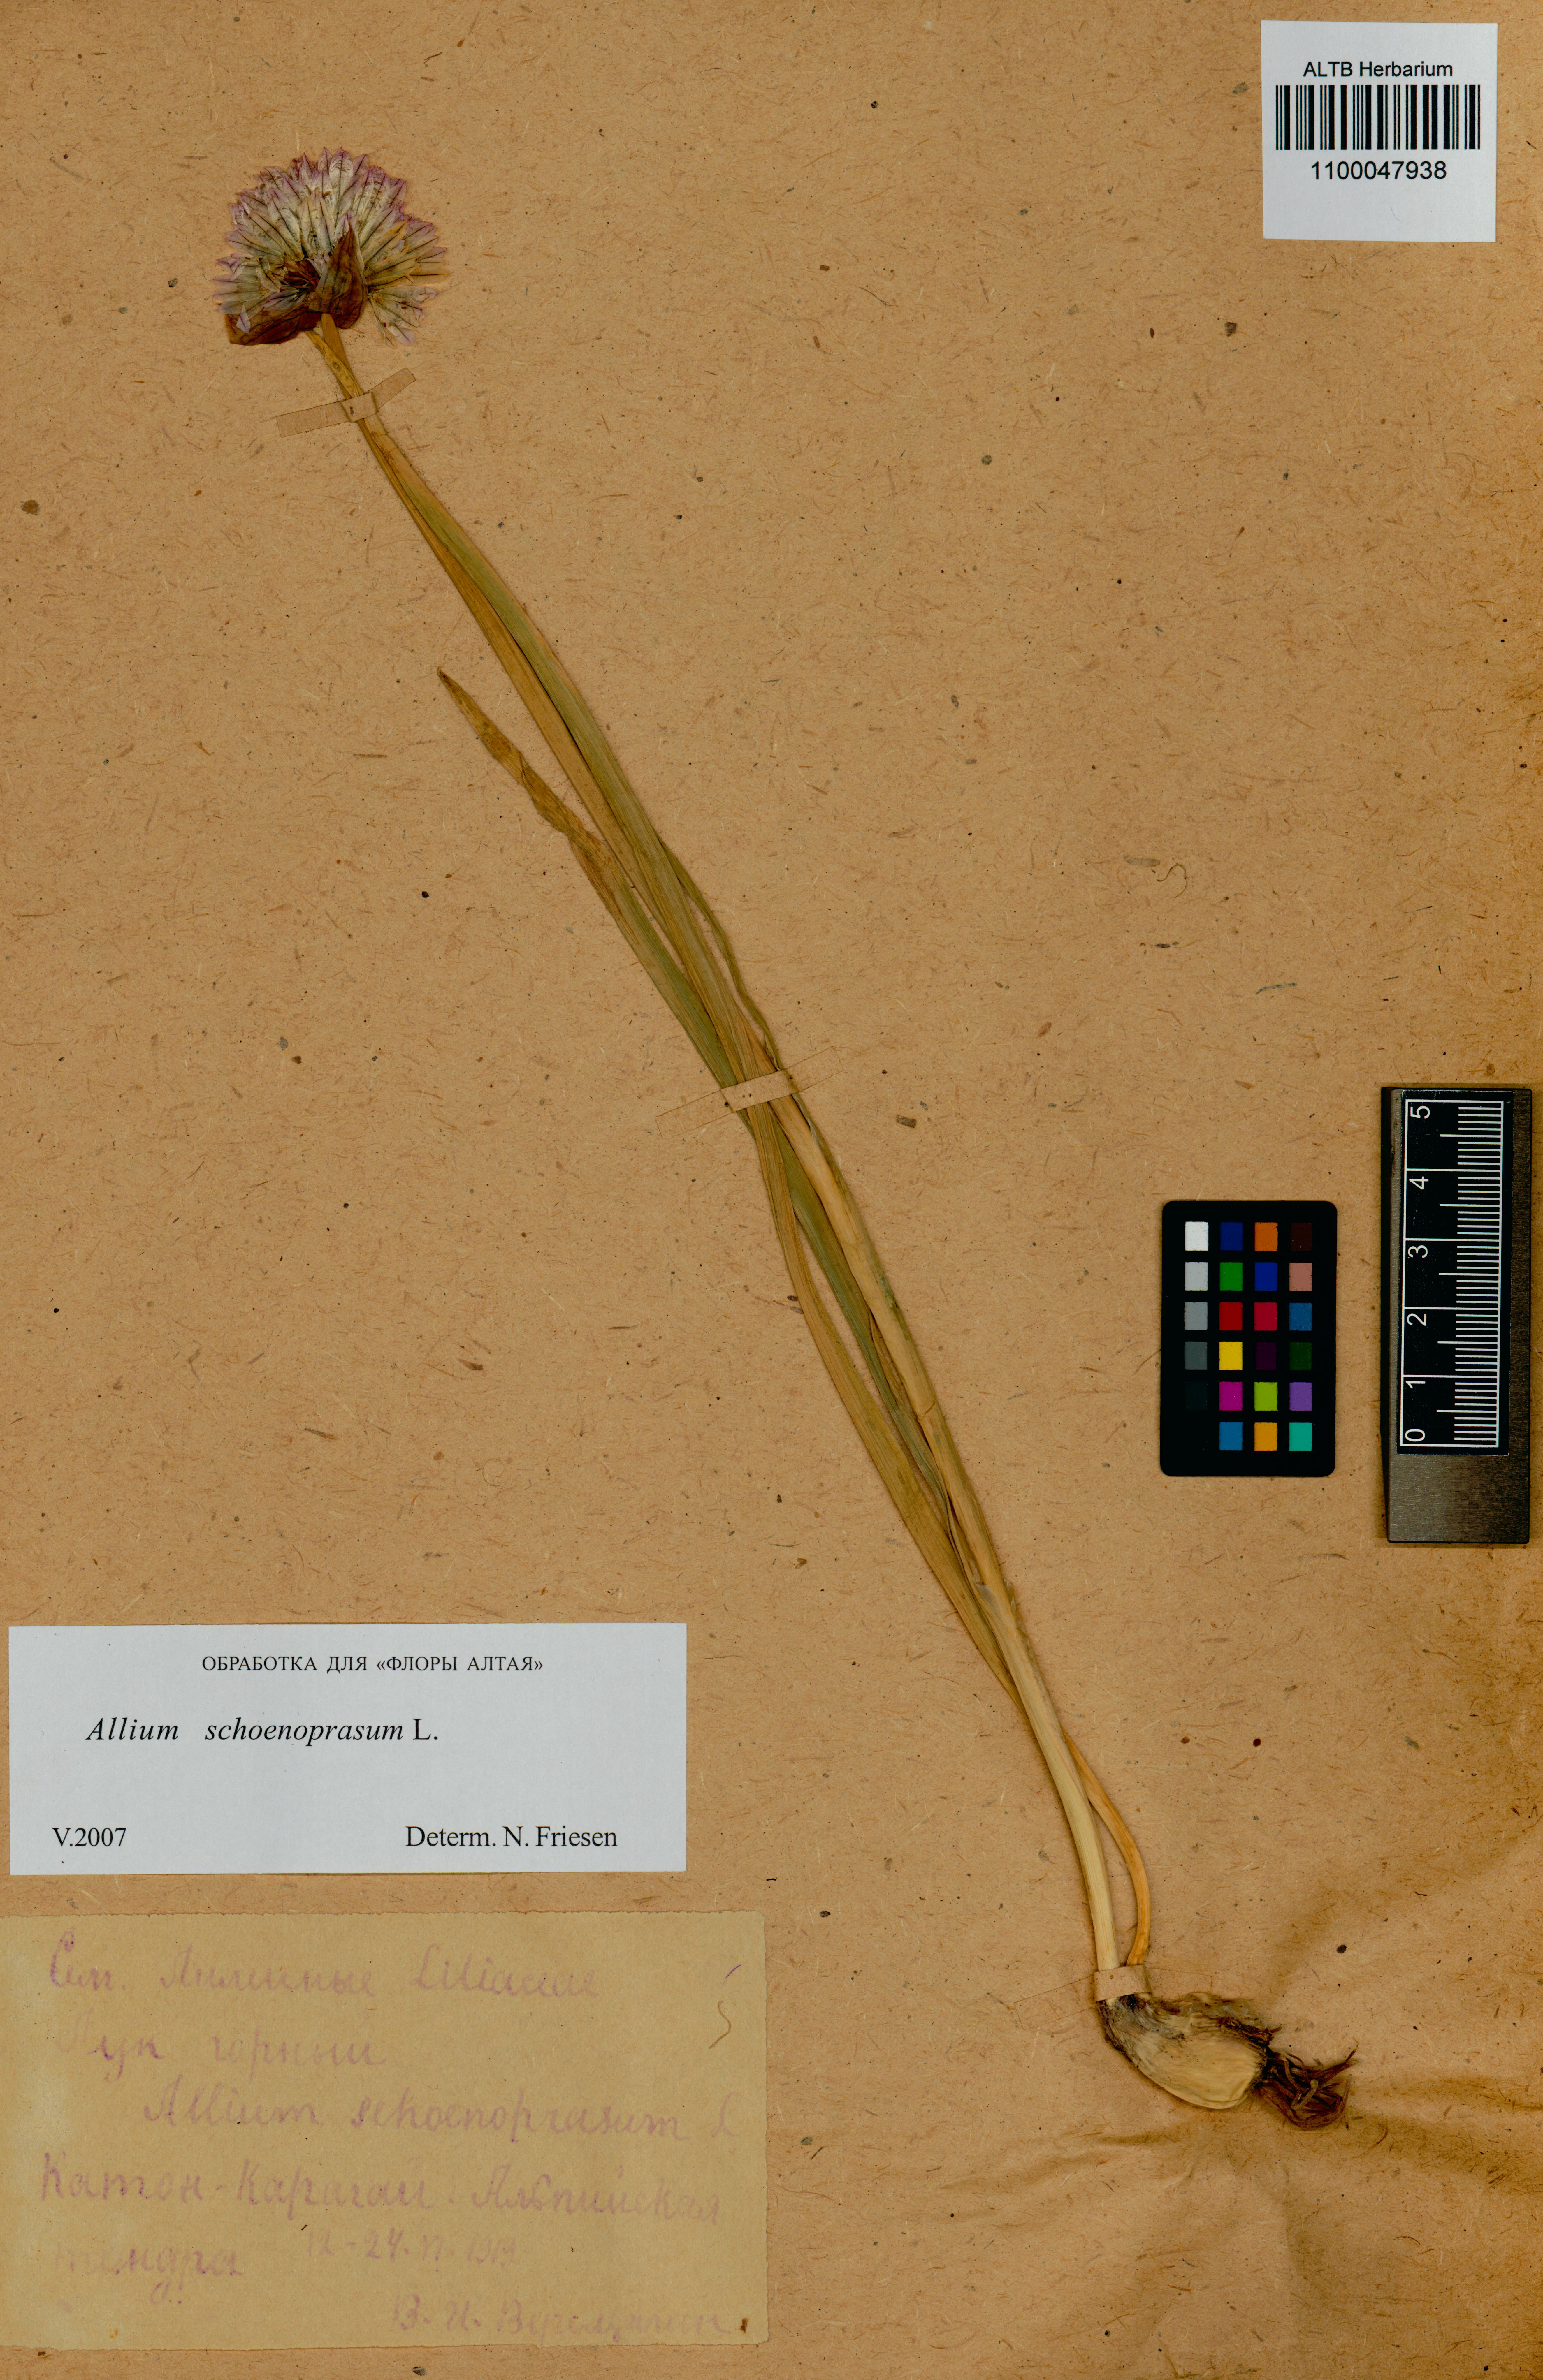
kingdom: Plantae
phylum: Tracheophyta
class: Liliopsida
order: Asparagales
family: Amaryllidaceae
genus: Allium
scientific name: Allium schoenoprasum
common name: Chives
